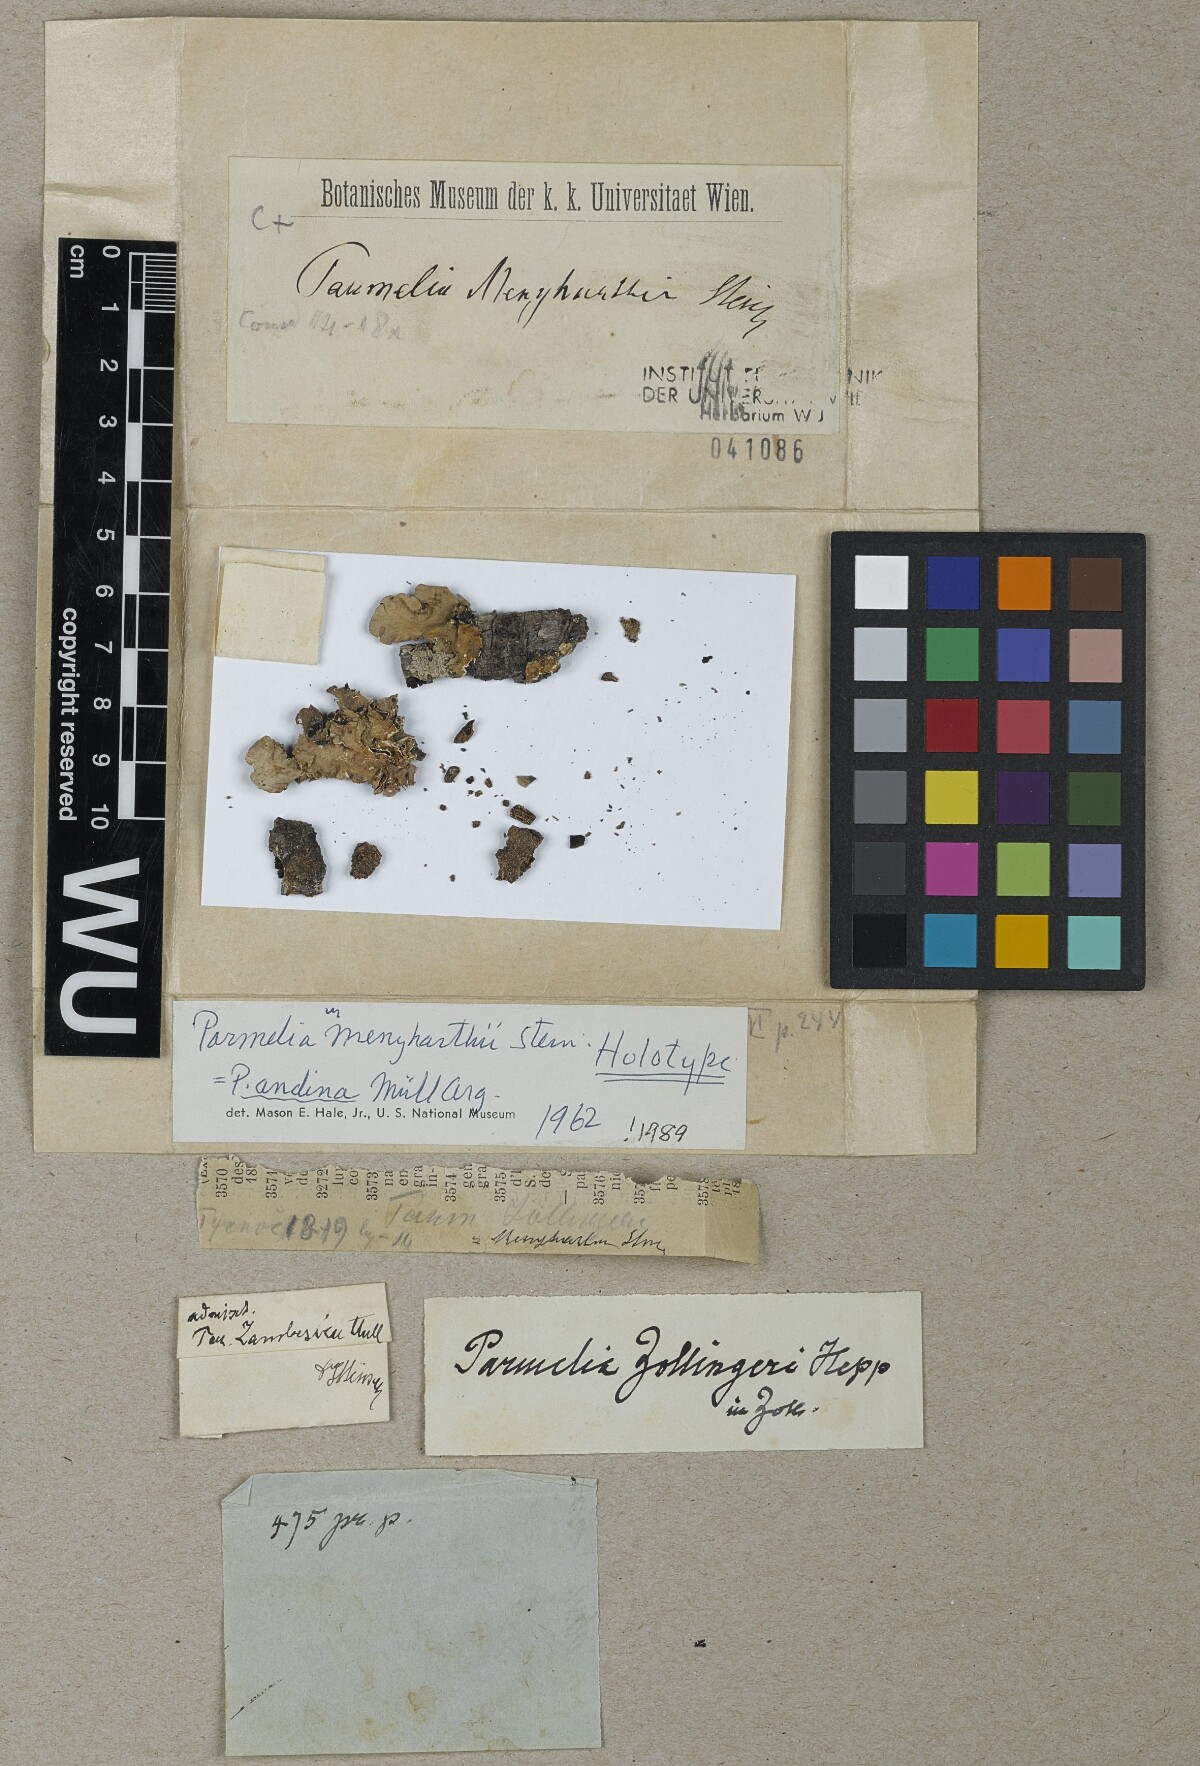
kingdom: Fungi
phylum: Ascomycota
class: Lecanoromycetes
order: Lecanorales
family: Parmeliaceae
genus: Parmelia
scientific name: Parmelia
